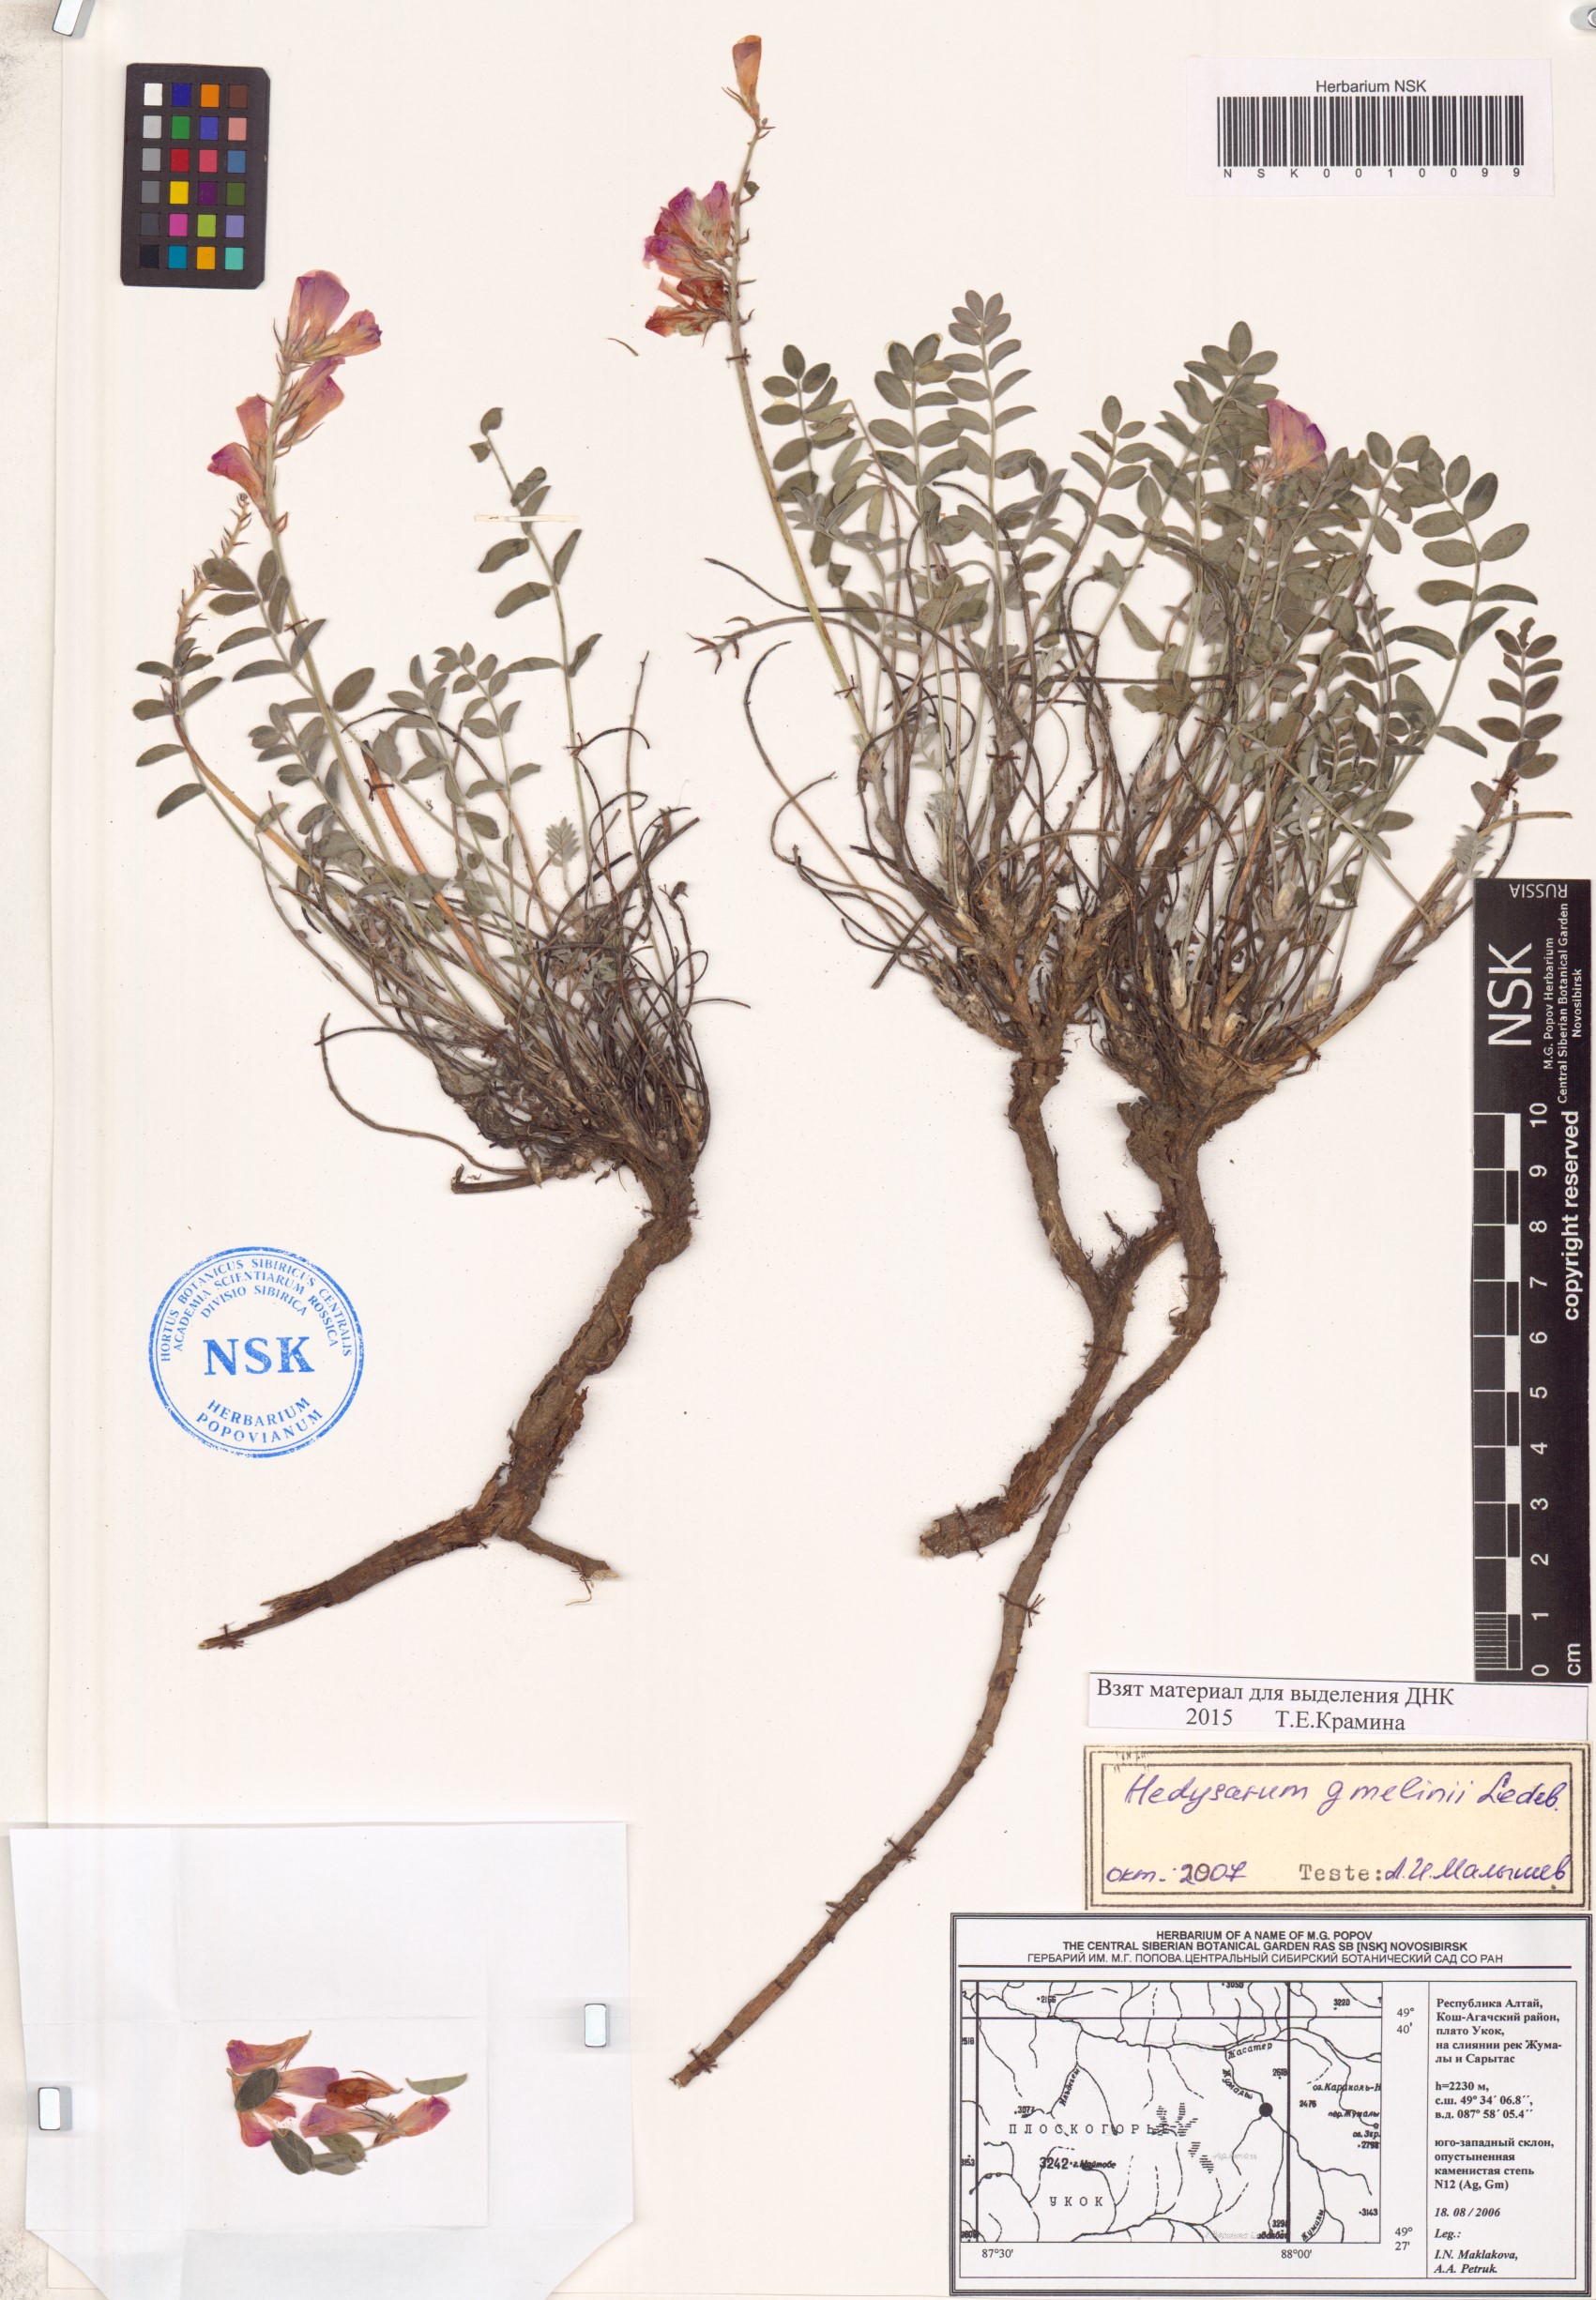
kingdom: Plantae
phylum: Tracheophyta
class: Magnoliopsida
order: Fabales
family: Fabaceae
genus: Hedysarum
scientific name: Hedysarum gmelinii
